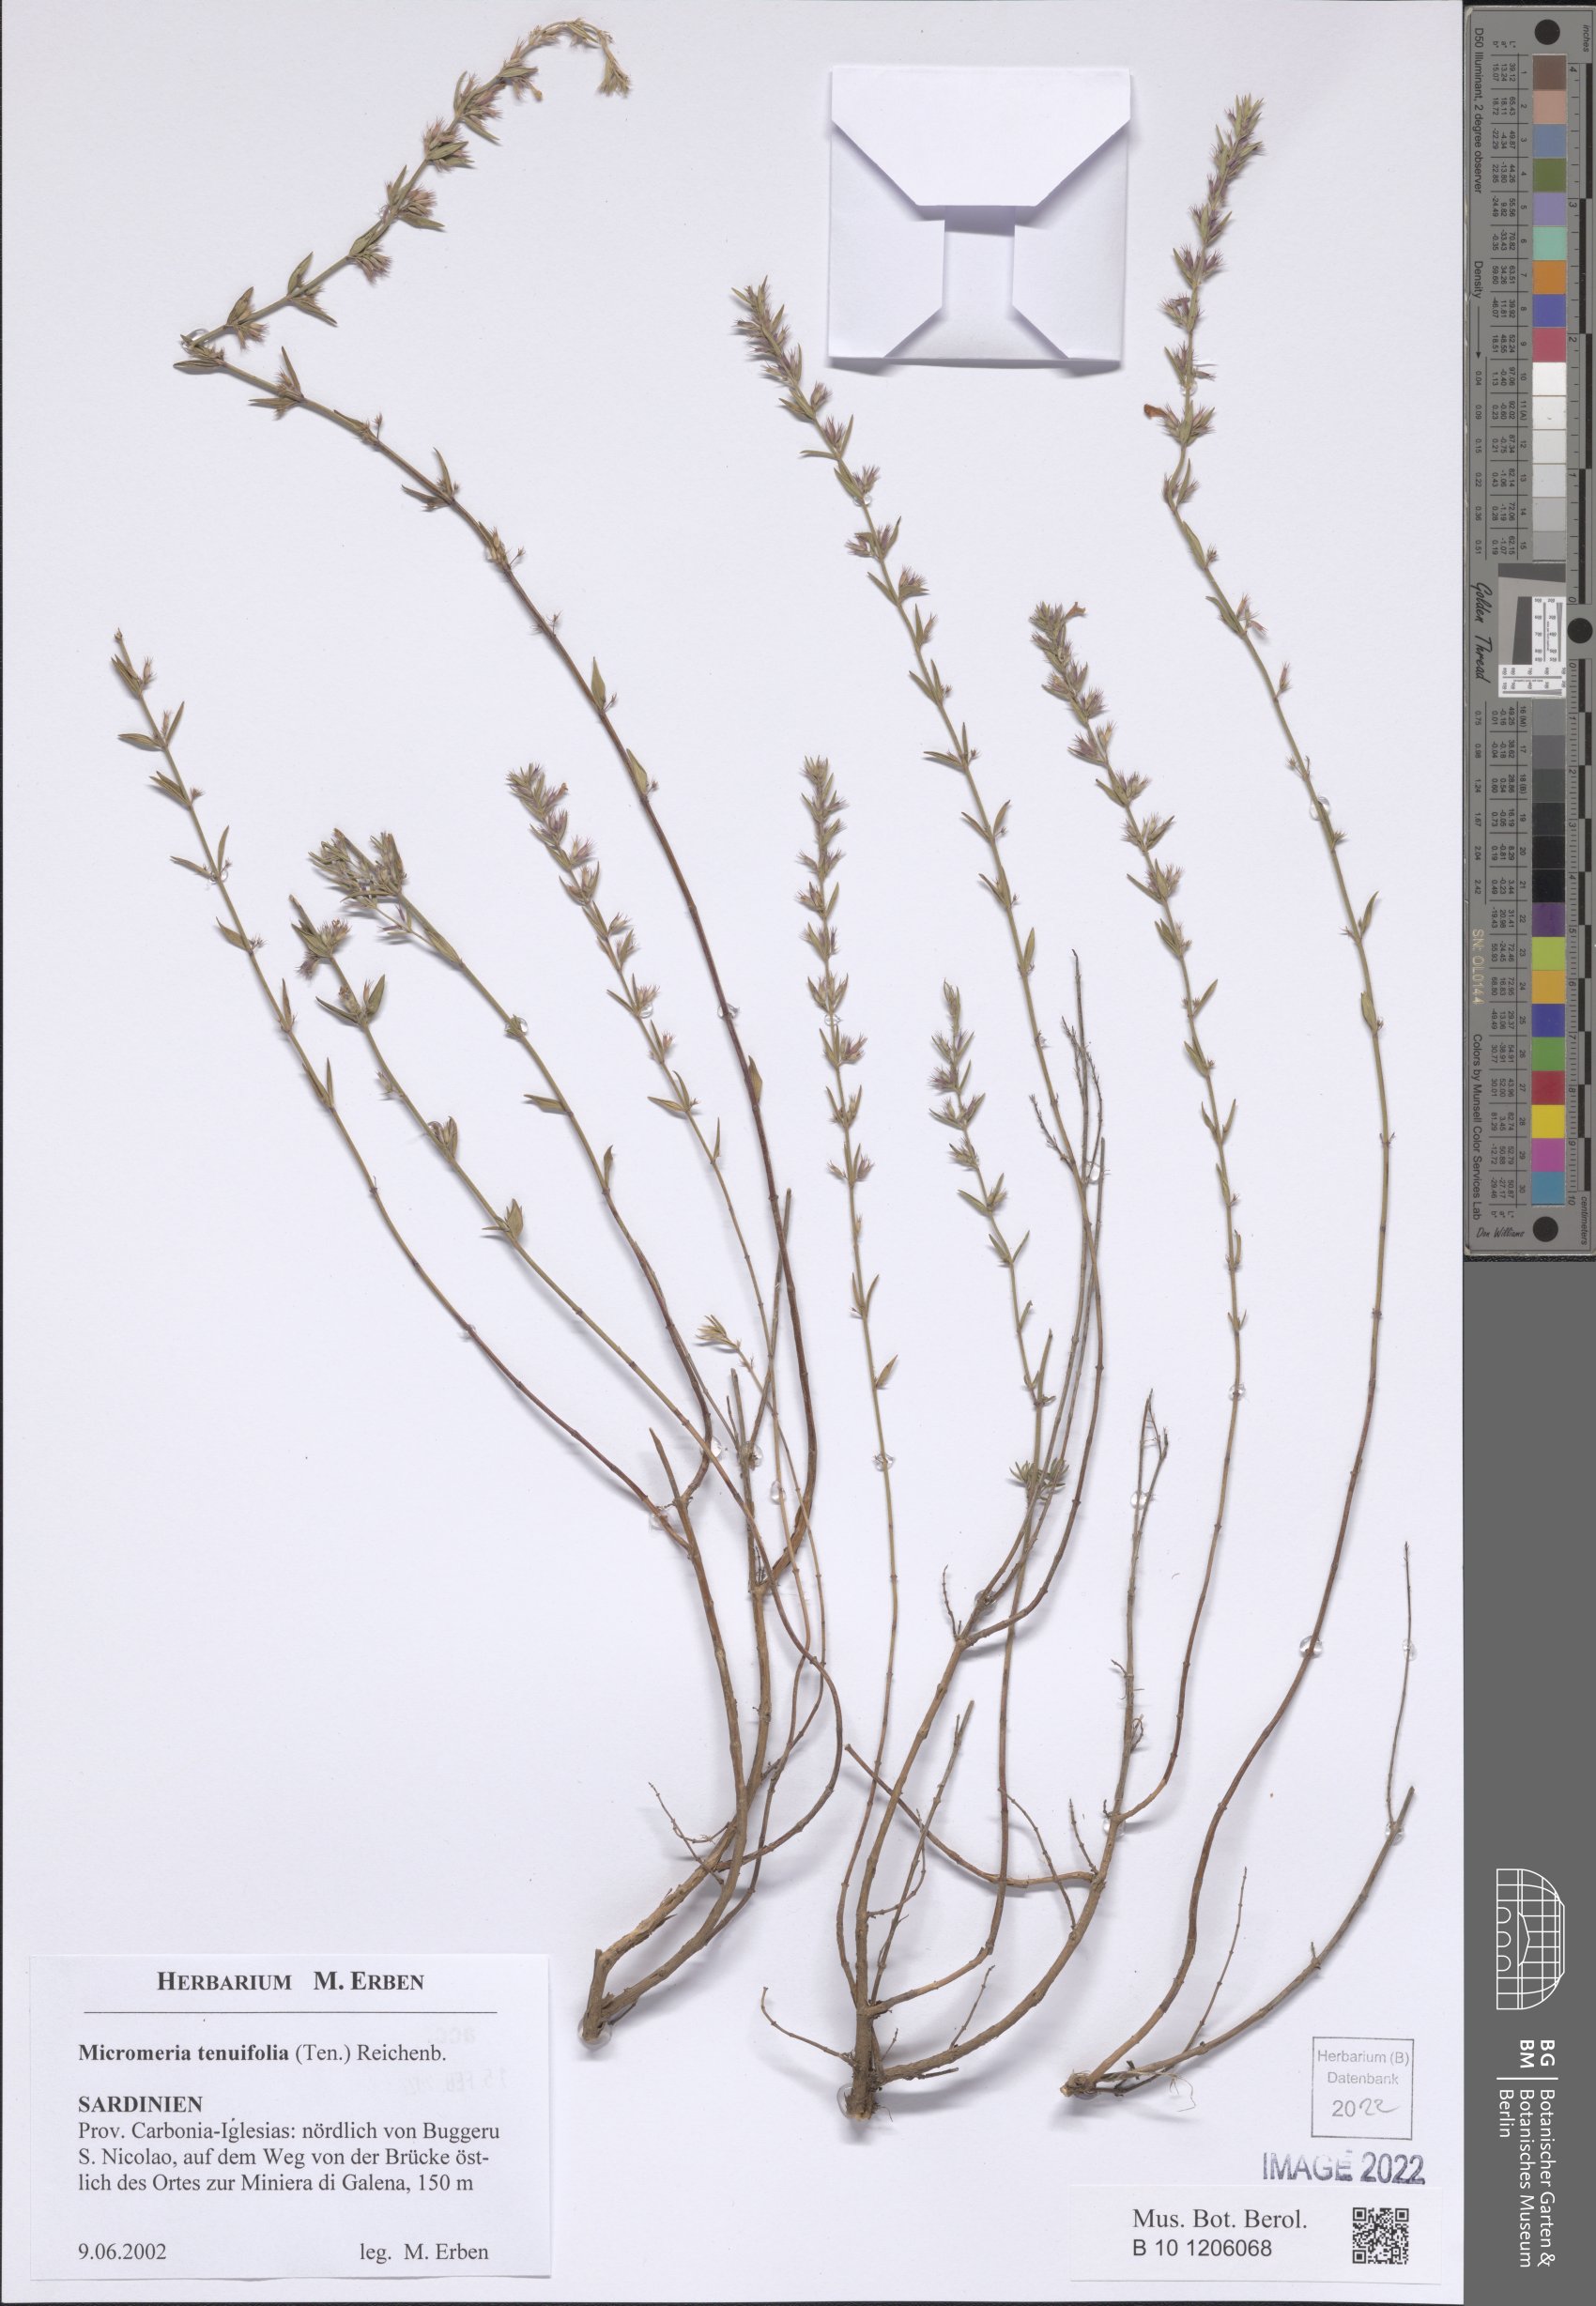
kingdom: Plantae
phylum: Tracheophyta
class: Magnoliopsida
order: Lamiales
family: Lamiaceae
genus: Micromeria
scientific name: Micromeria graeca
